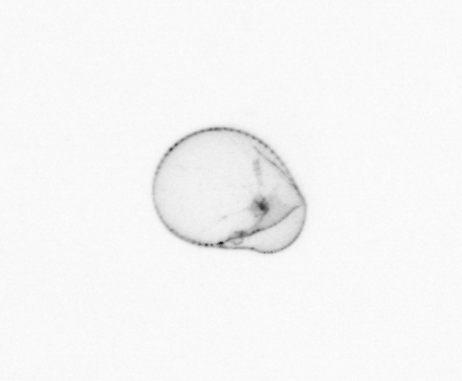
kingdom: Chromista
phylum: Myzozoa
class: Dinophyceae
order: Noctilucales
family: Noctilucaceae
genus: Noctiluca
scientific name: Noctiluca scintillans
